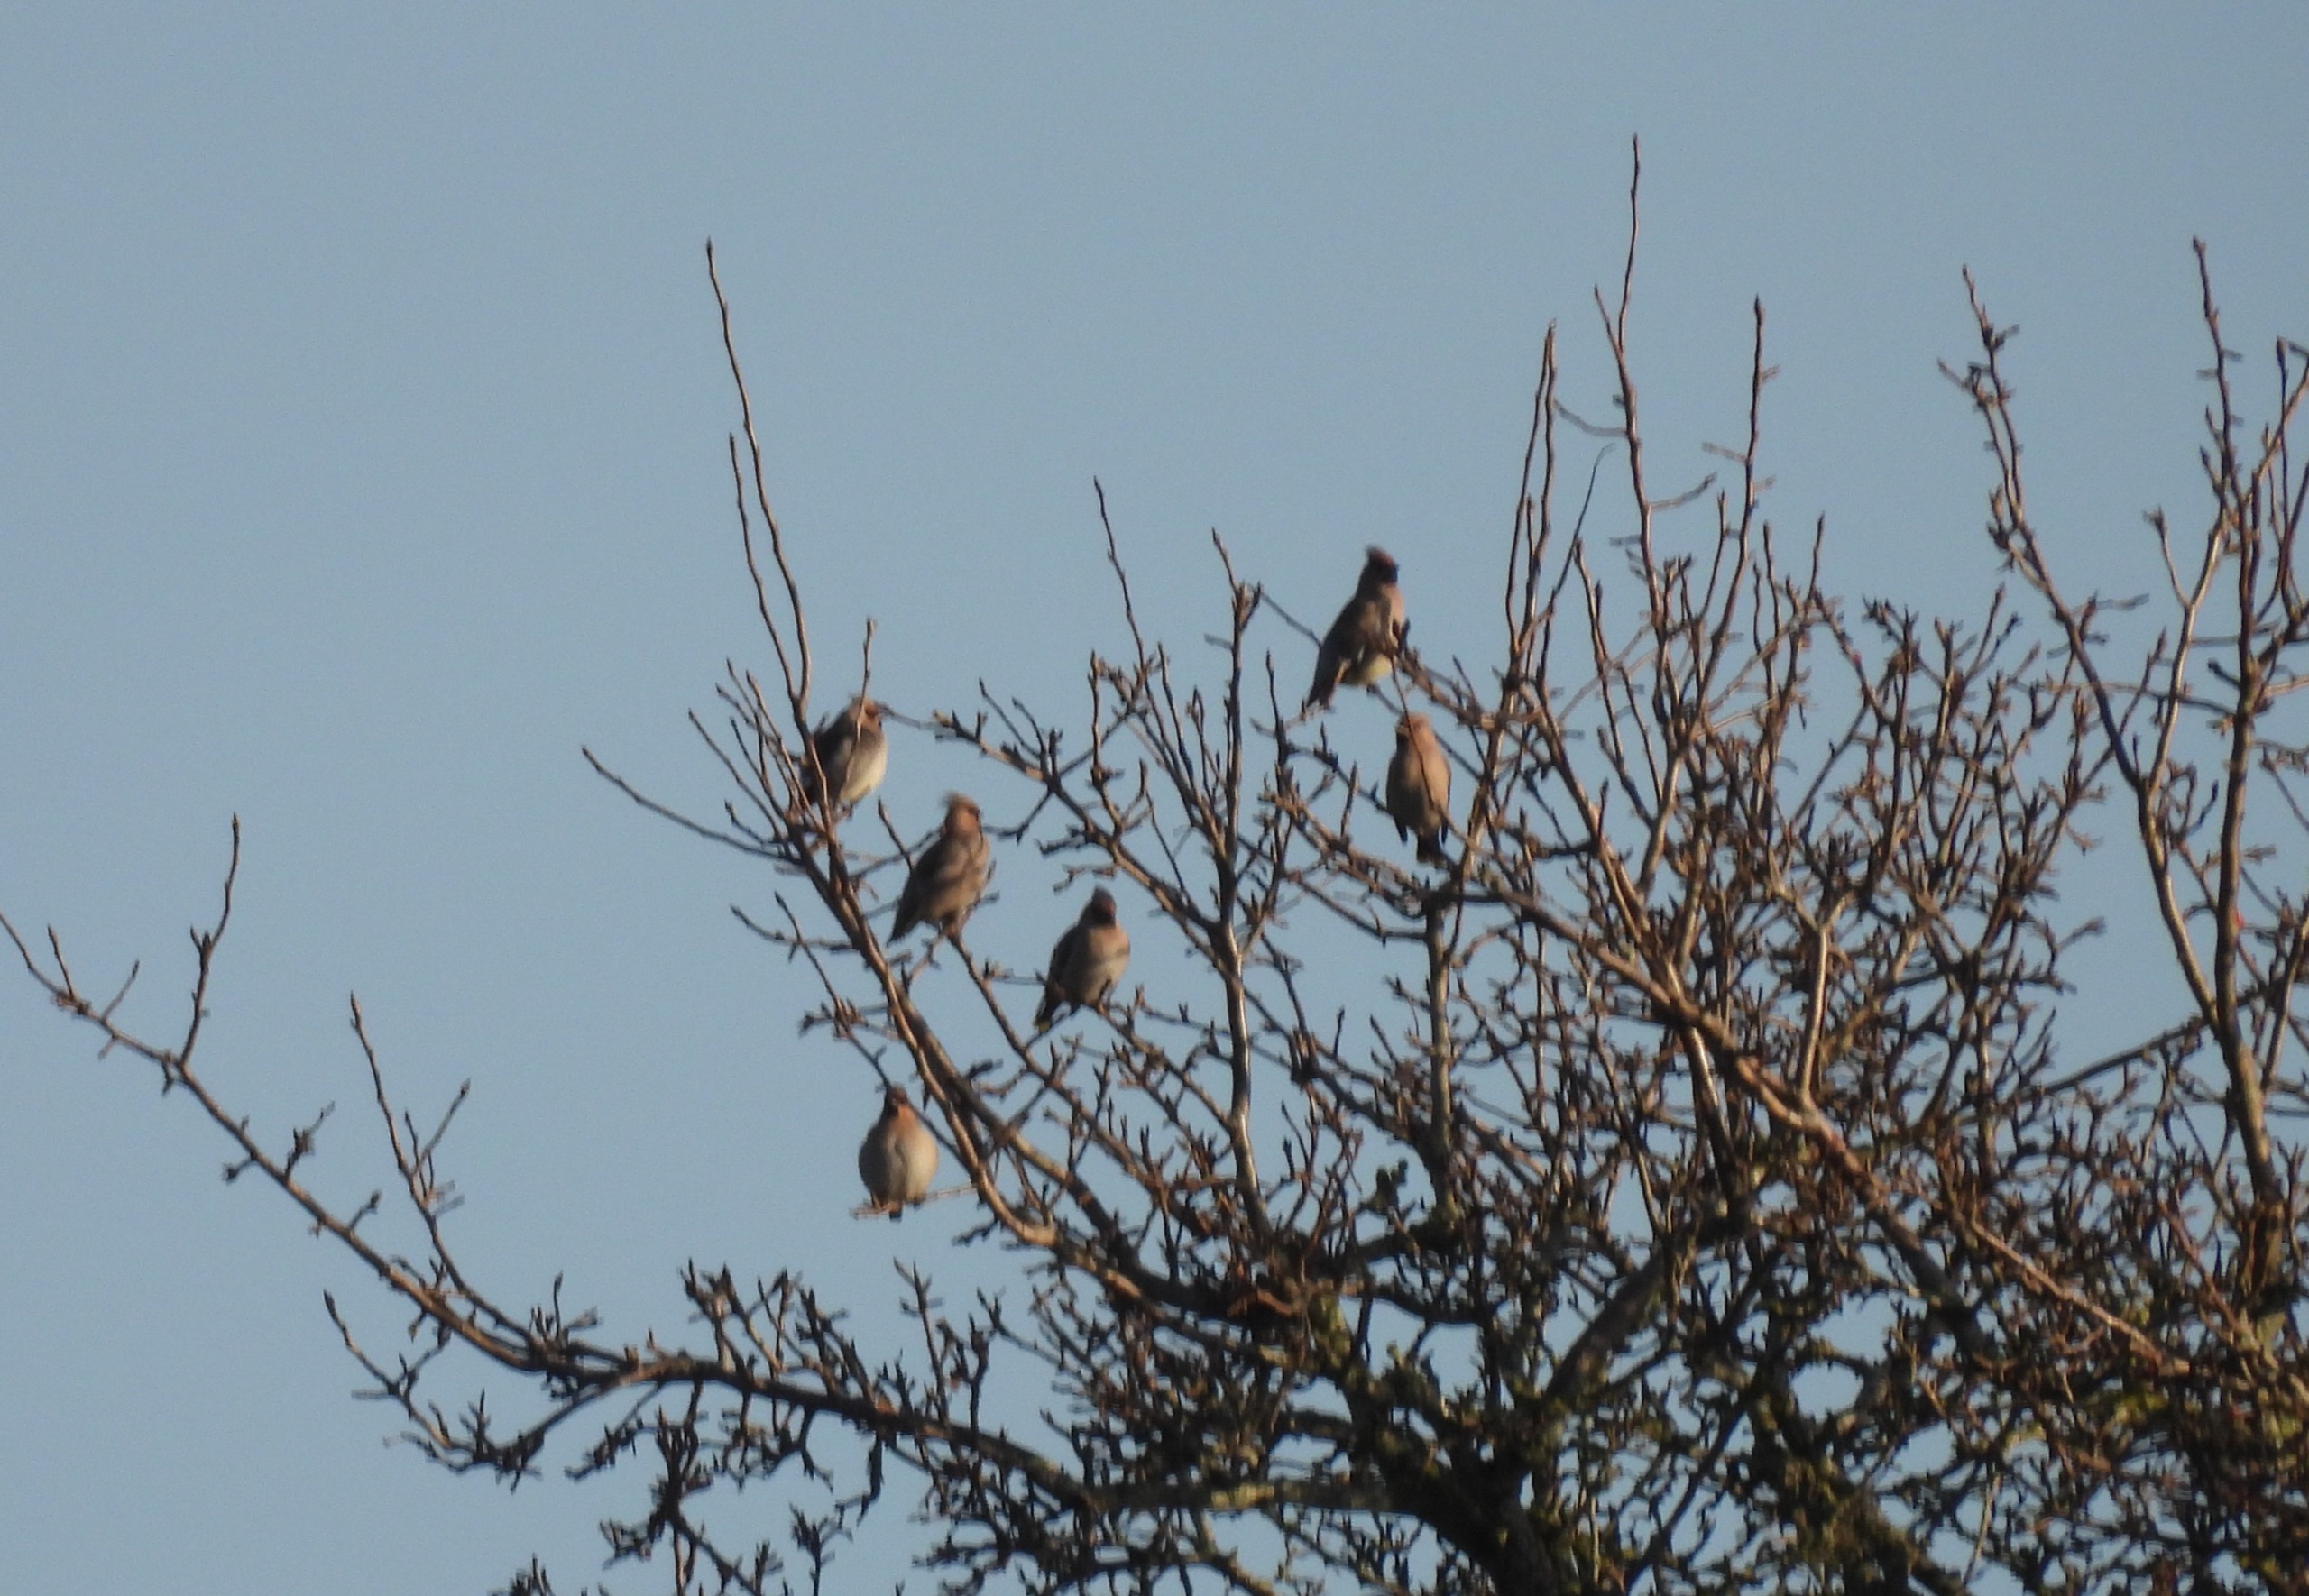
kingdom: Animalia
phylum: Chordata
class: Aves
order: Passeriformes
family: Bombycillidae
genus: Bombycilla
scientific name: Bombycilla garrulus
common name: Silkehale
